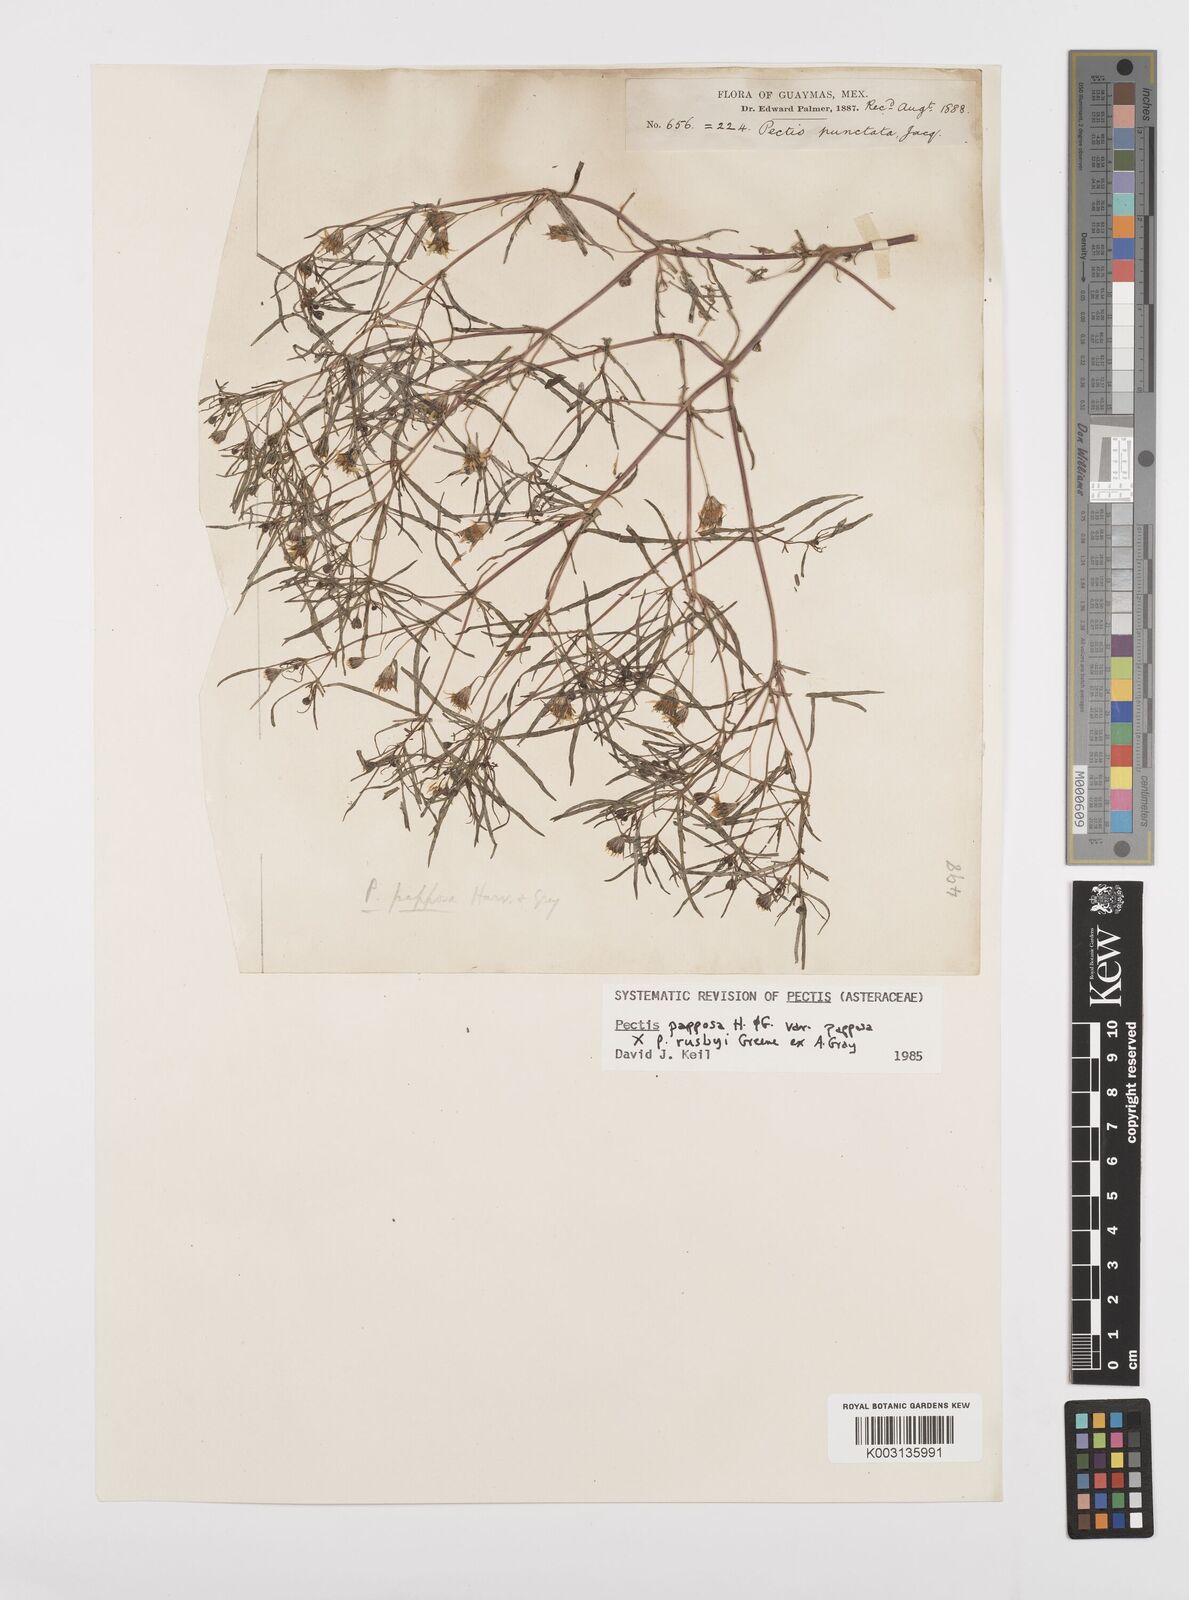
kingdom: Plantae
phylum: Tracheophyta
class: Magnoliopsida
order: Asterales
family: Asteraceae
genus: Pectis
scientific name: Pectis papposa
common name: Many-bristle chinchweed
